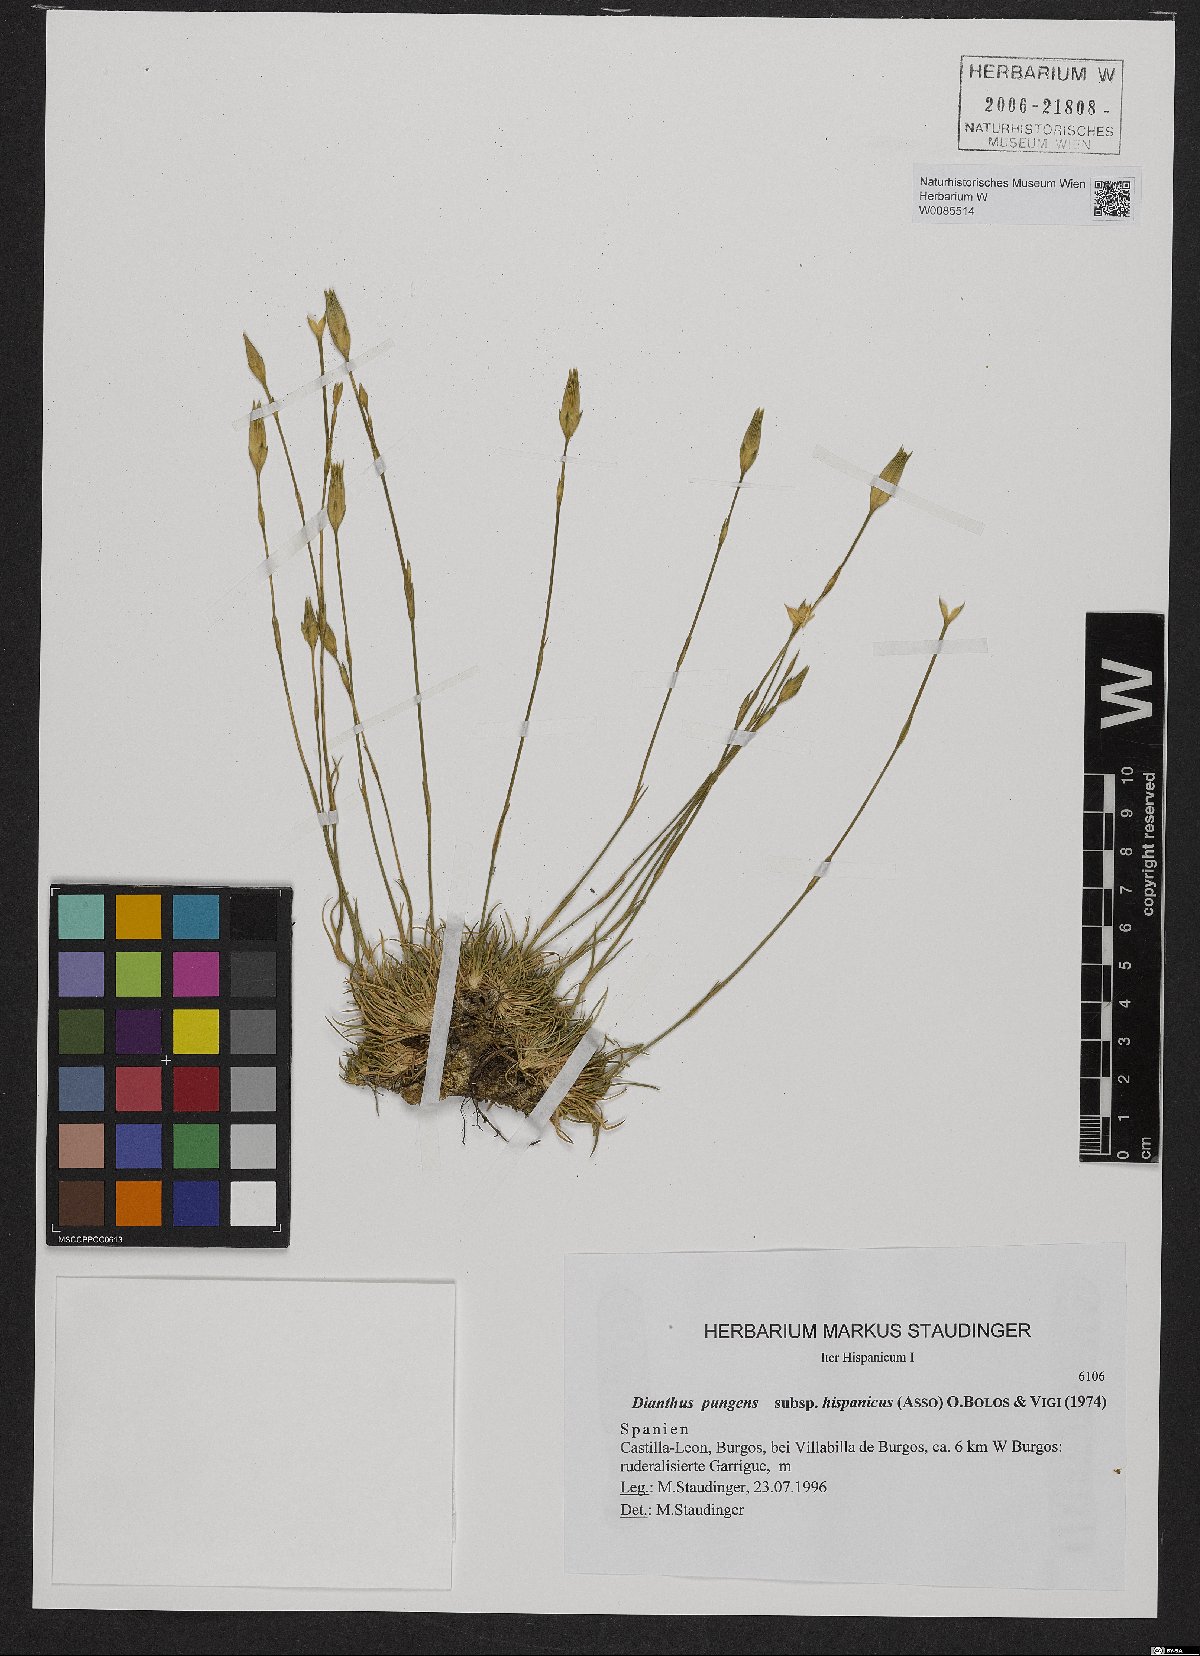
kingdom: Plantae
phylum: Tracheophyta
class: Magnoliopsida
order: Caryophyllales
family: Caryophyllaceae
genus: Dianthus
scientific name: Dianthus pungens
